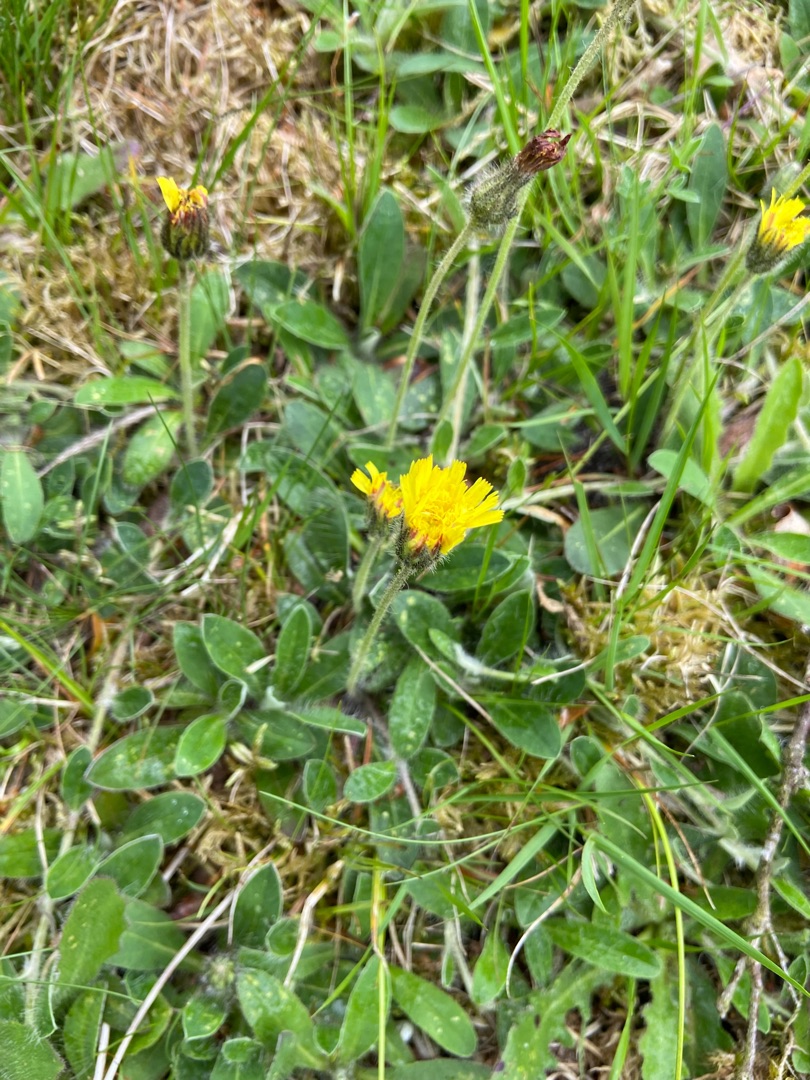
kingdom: Plantae
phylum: Tracheophyta
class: Magnoliopsida
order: Asterales
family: Asteraceae
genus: Pilosella
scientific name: Pilosella officinarum
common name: Håret høgeurt
